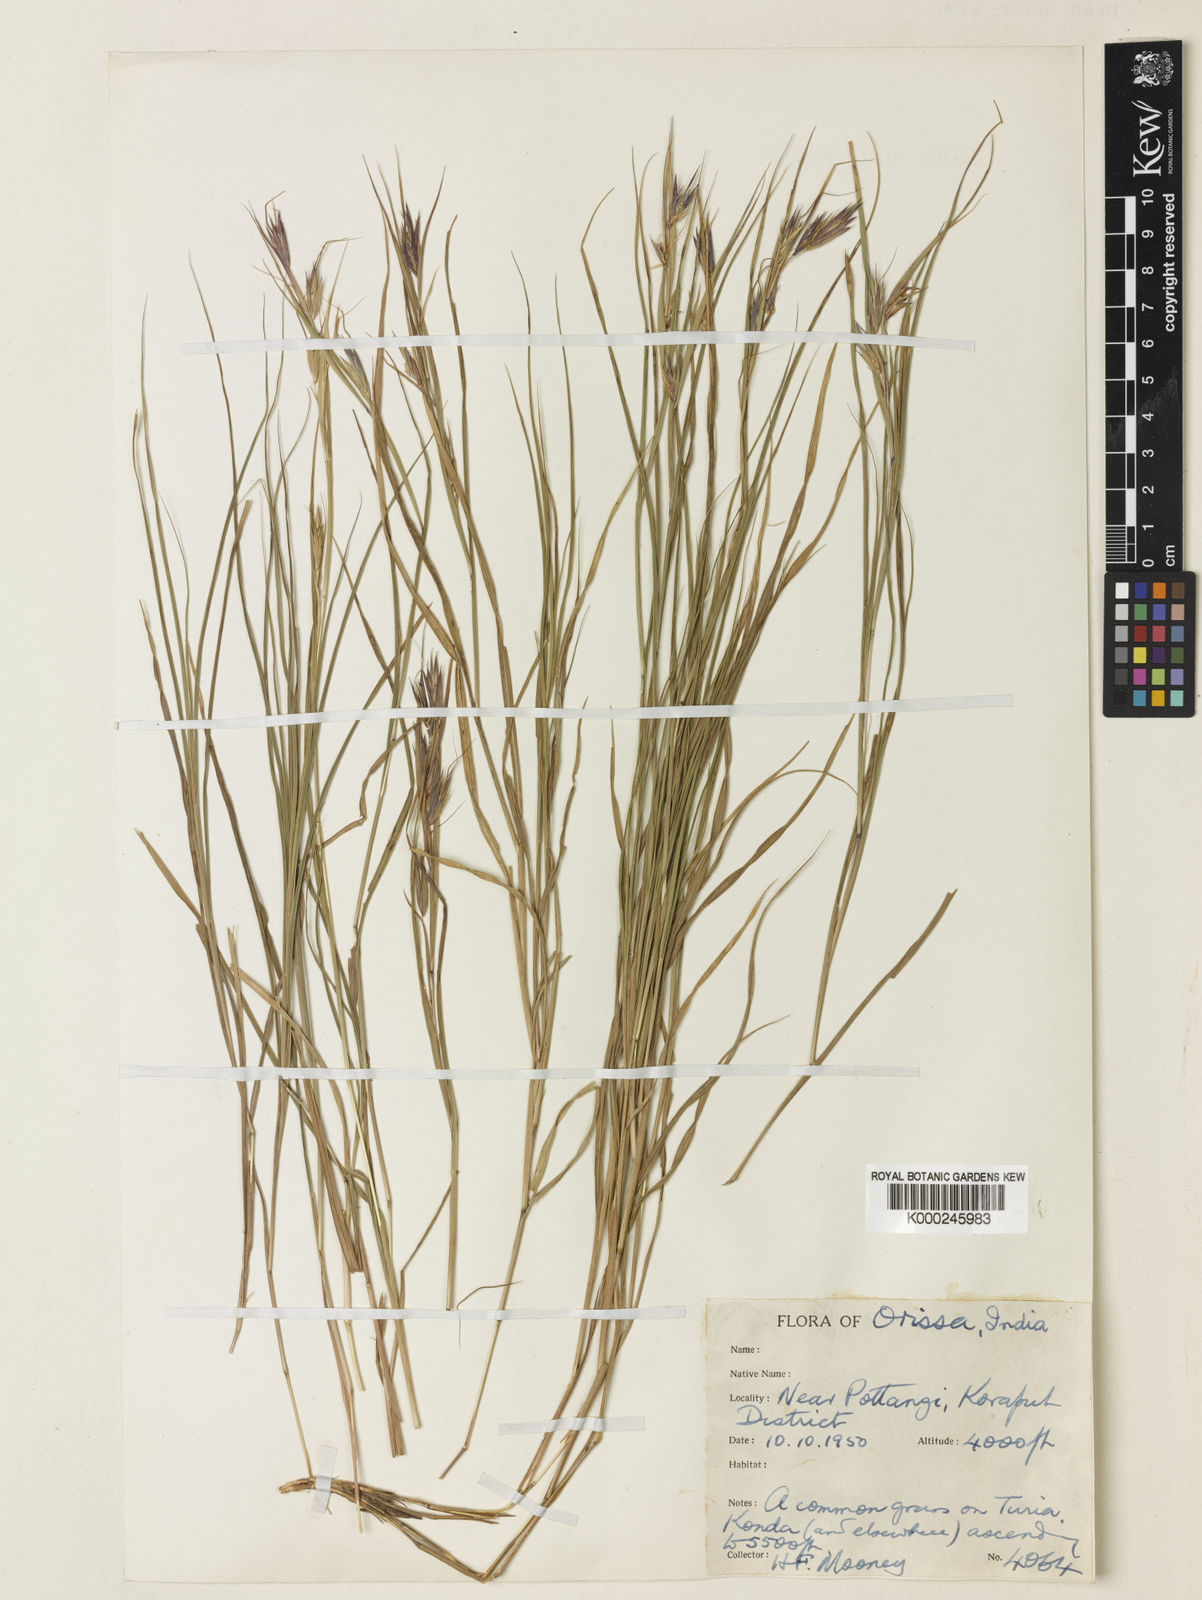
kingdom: Plantae
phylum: Tracheophyta
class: Liliopsida
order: Poales
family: Poaceae
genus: Themeda
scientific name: Themeda mooneyi
